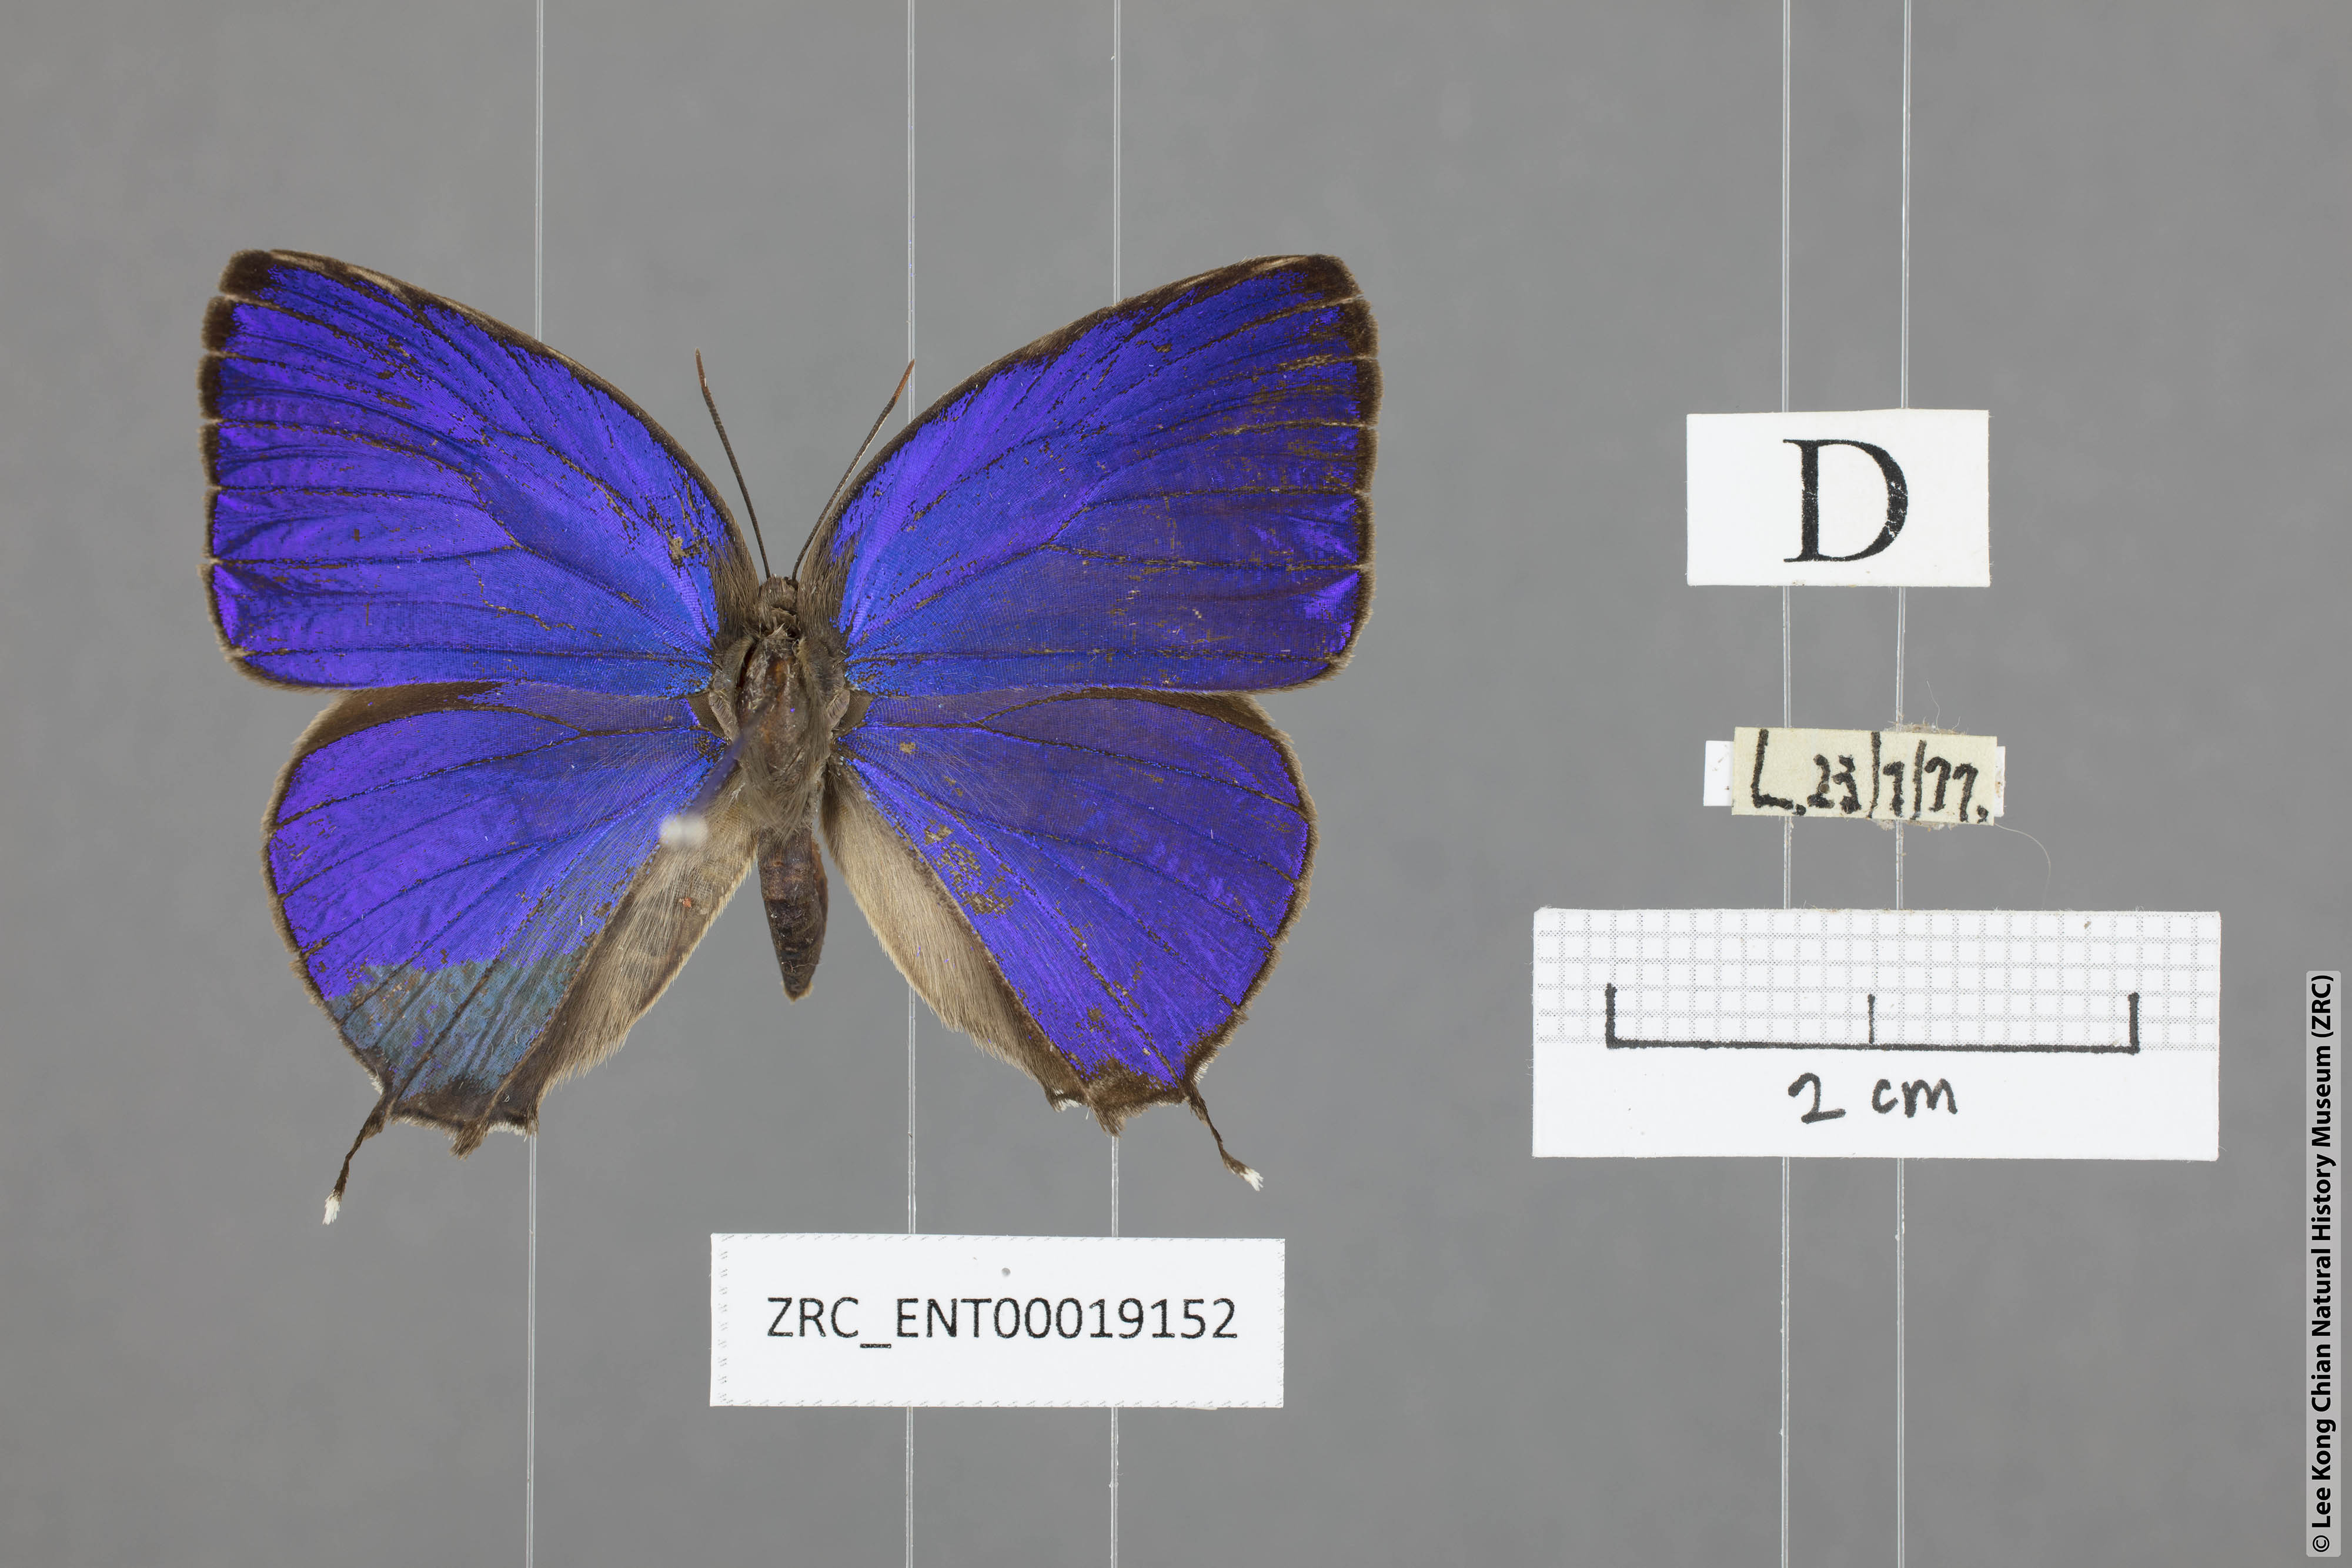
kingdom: Animalia
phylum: Arthropoda
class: Insecta
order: Lepidoptera
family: Lycaenidae
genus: Arhopala
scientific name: Arhopala anthelus
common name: Bushblue
